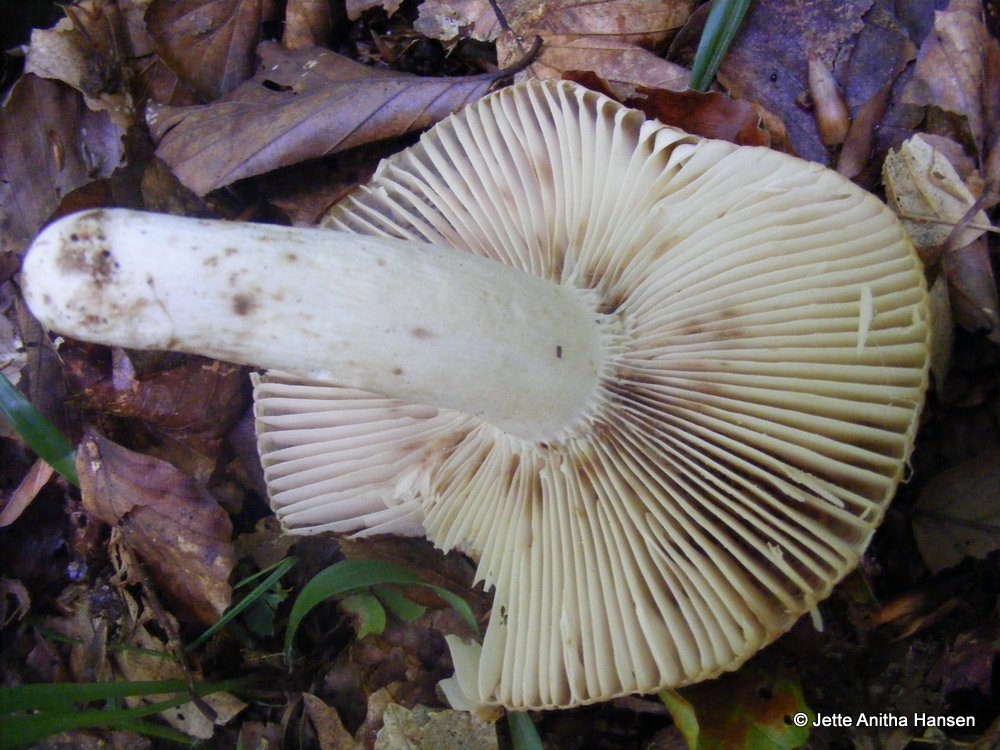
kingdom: Fungi
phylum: Basidiomycota
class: Agaricomycetes
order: Russulales
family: Russulaceae
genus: Russula
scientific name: Russula grata
